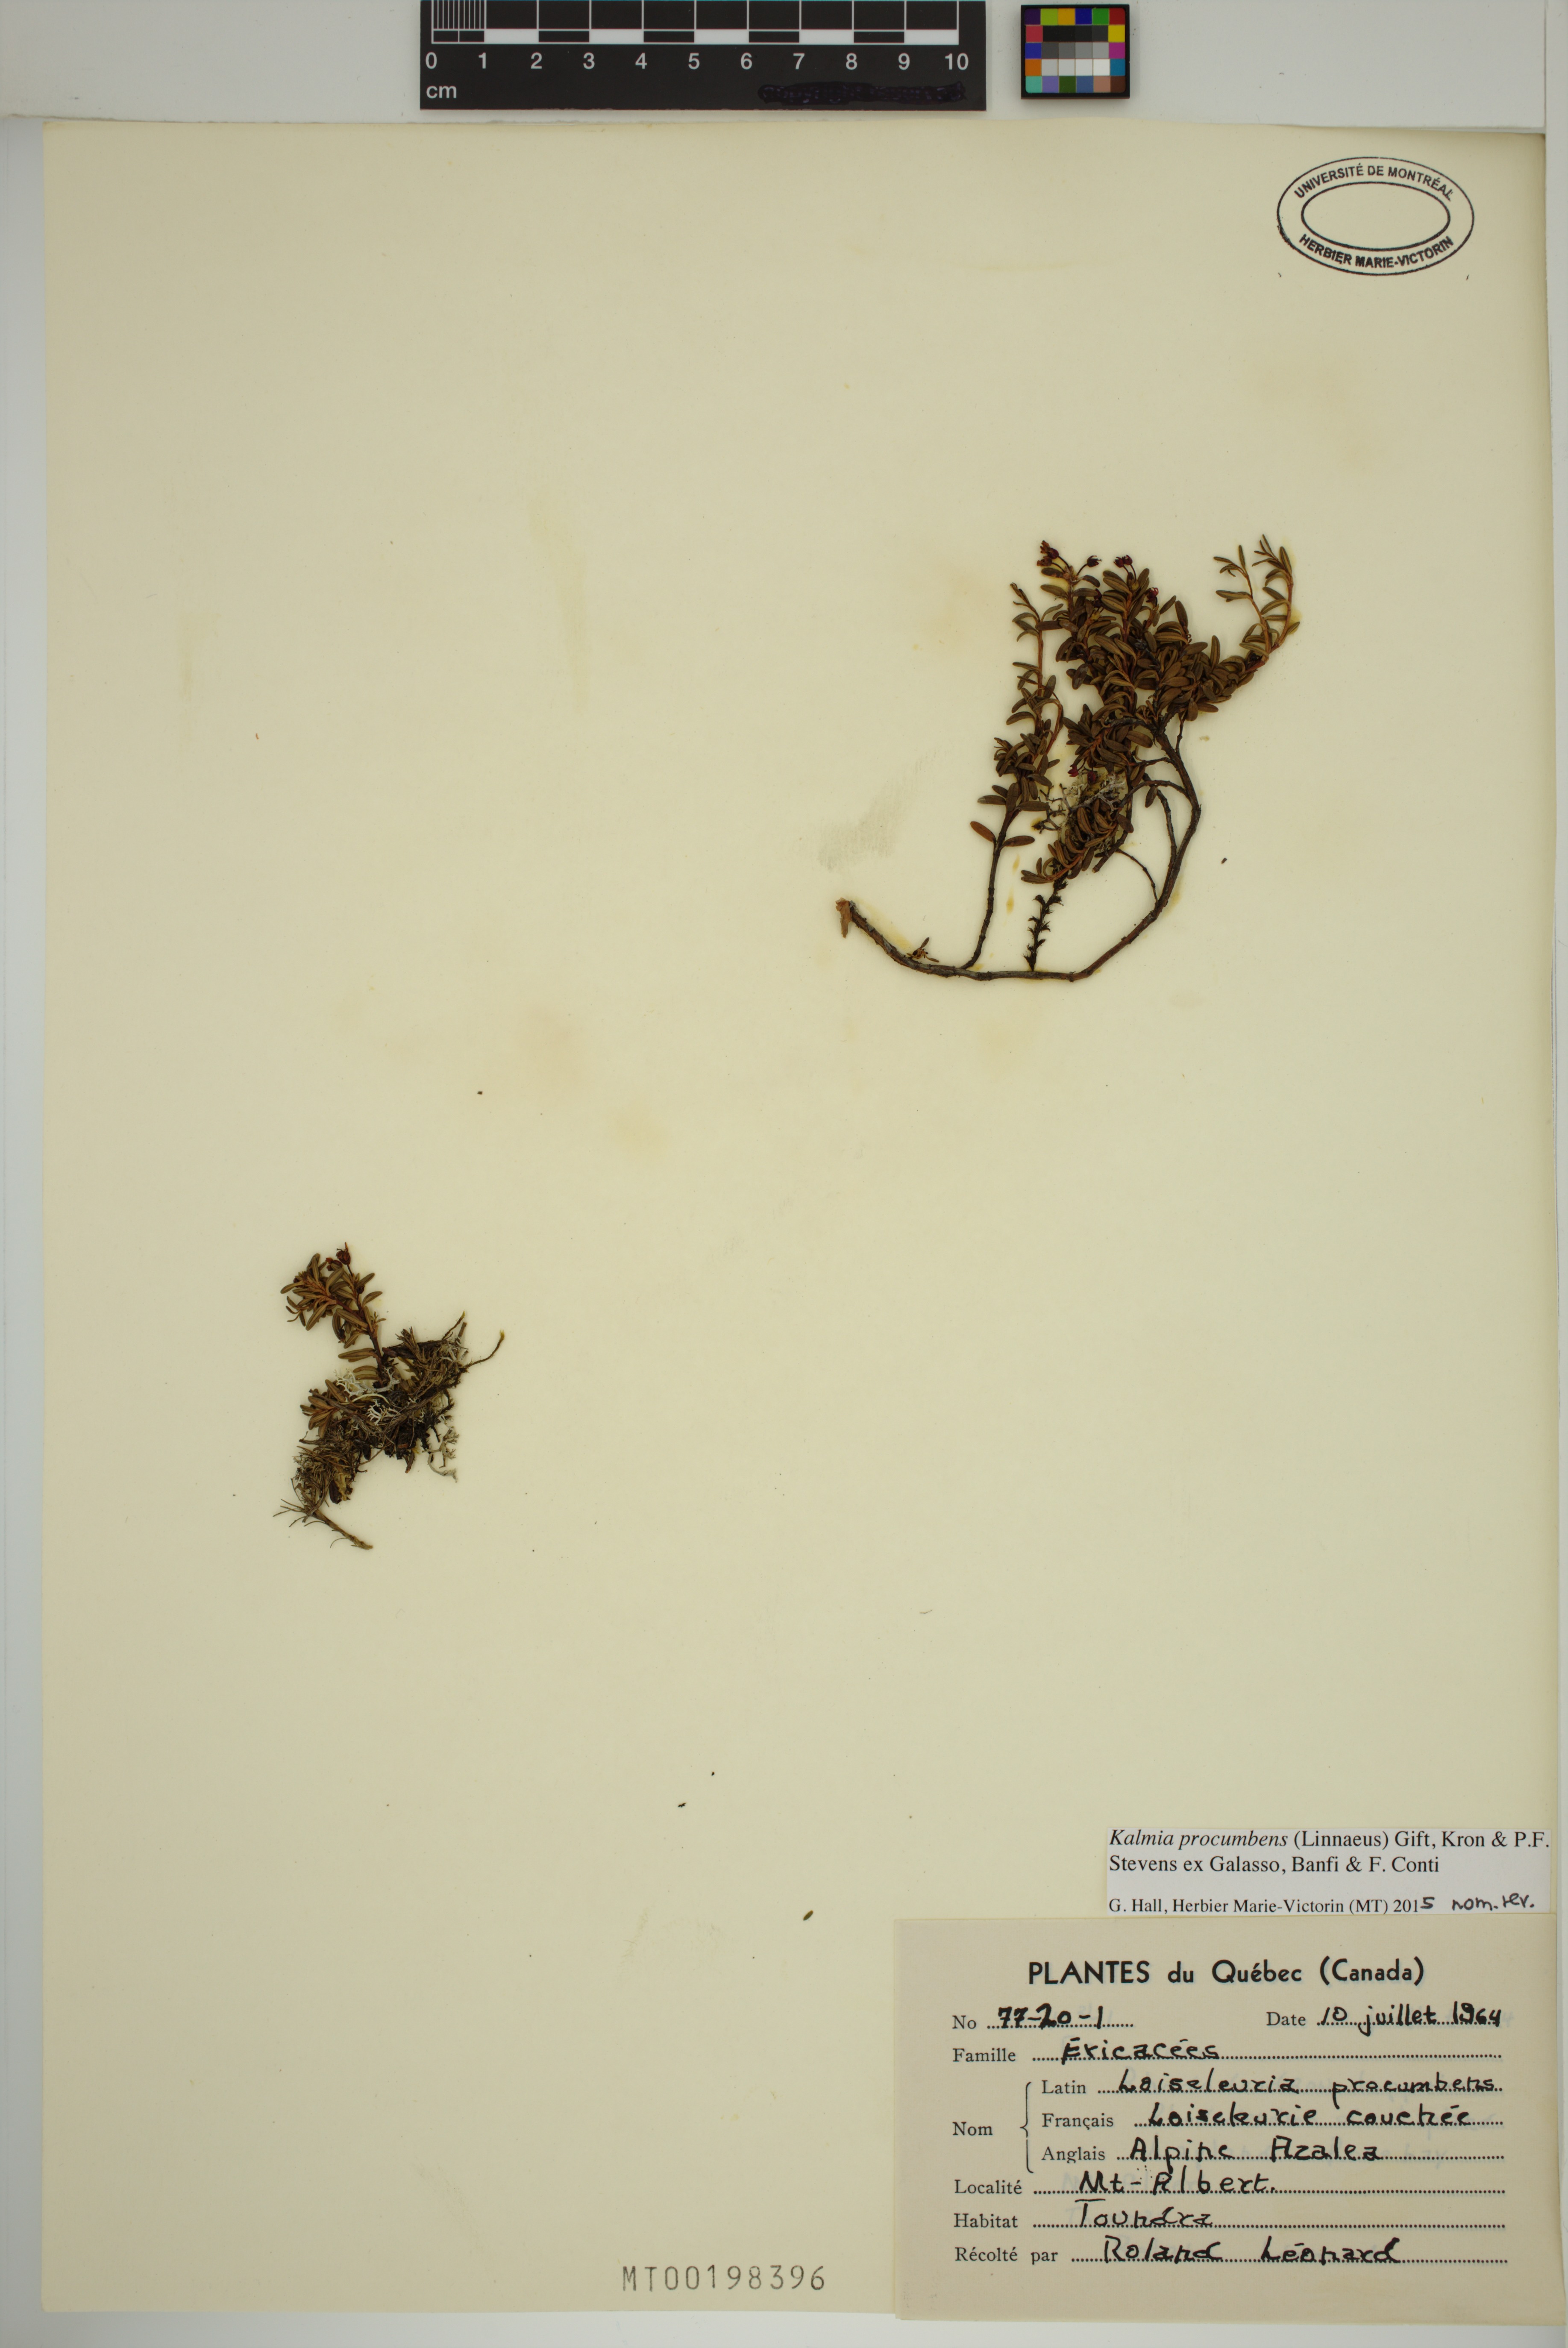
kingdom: Plantae
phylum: Tracheophyta
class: Magnoliopsida
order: Ericales
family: Ericaceae
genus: Kalmia
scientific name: Kalmia procumbens
